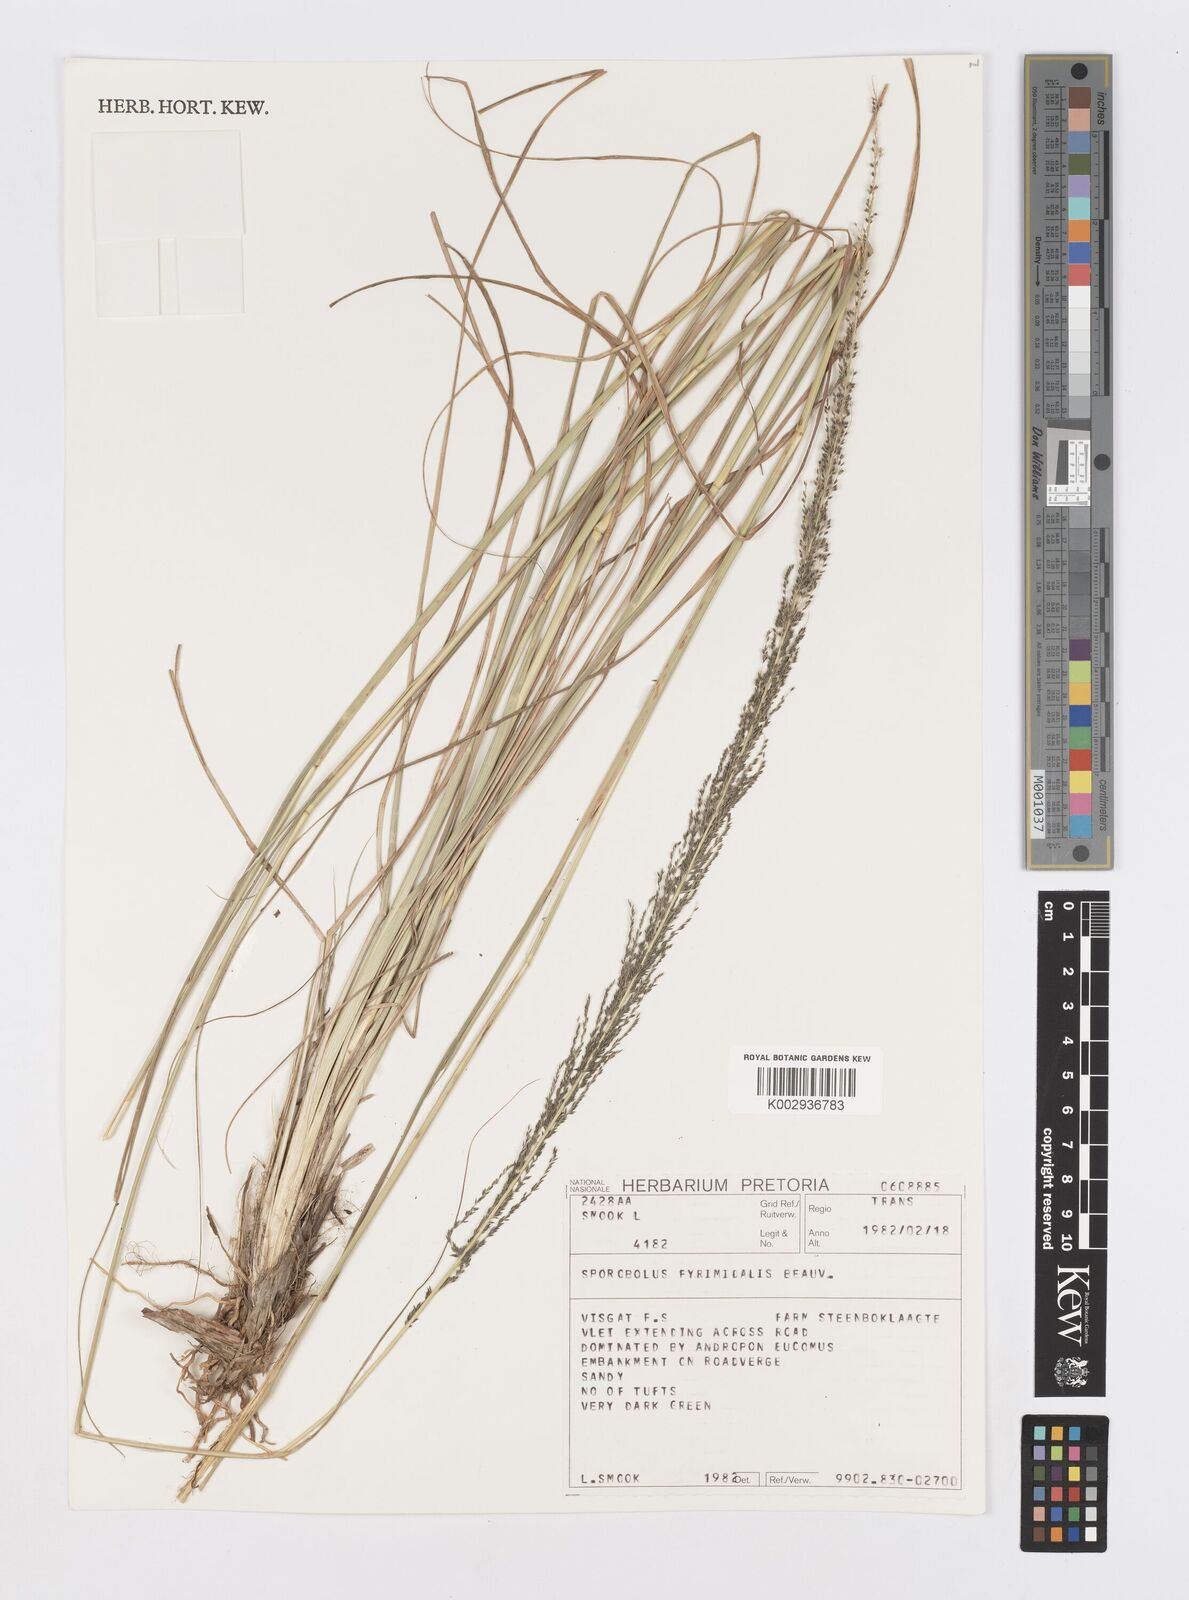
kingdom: Plantae
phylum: Tracheophyta
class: Liliopsida
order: Poales
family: Poaceae
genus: Sporobolus
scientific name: Sporobolus pyramidalis
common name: West indian dropseed
